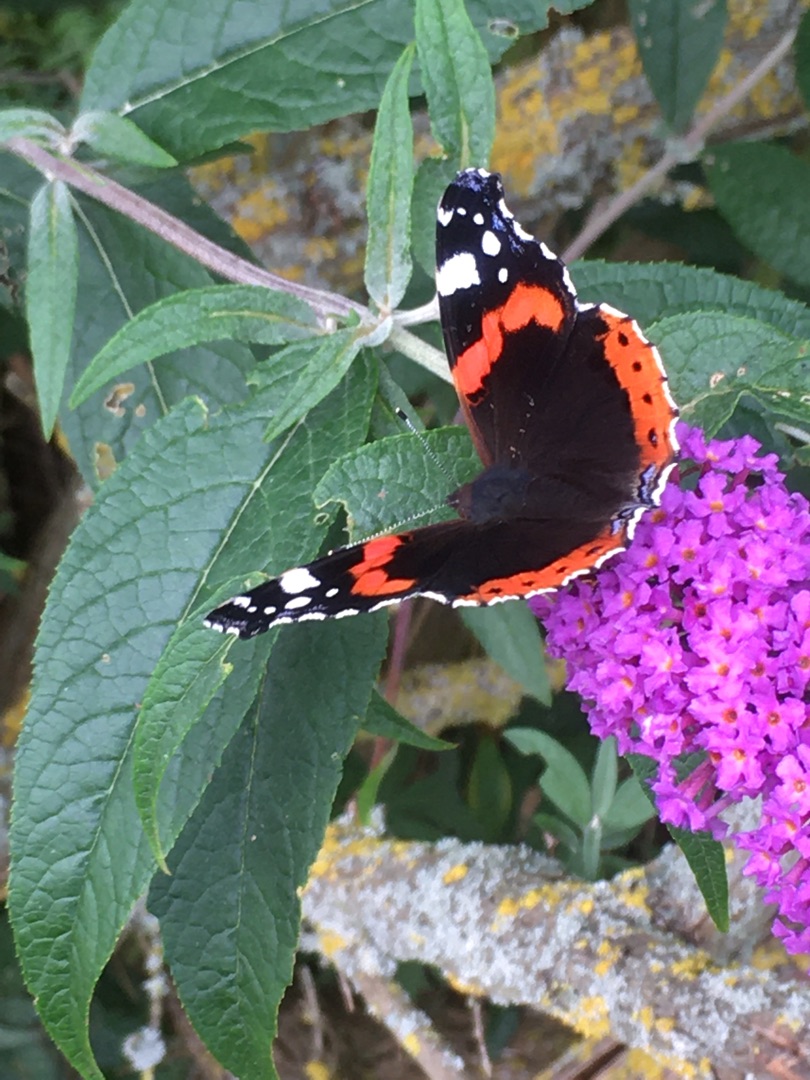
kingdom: Animalia
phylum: Arthropoda
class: Insecta
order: Lepidoptera
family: Nymphalidae
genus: Vanessa
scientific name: Vanessa atalanta
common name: Admiral
